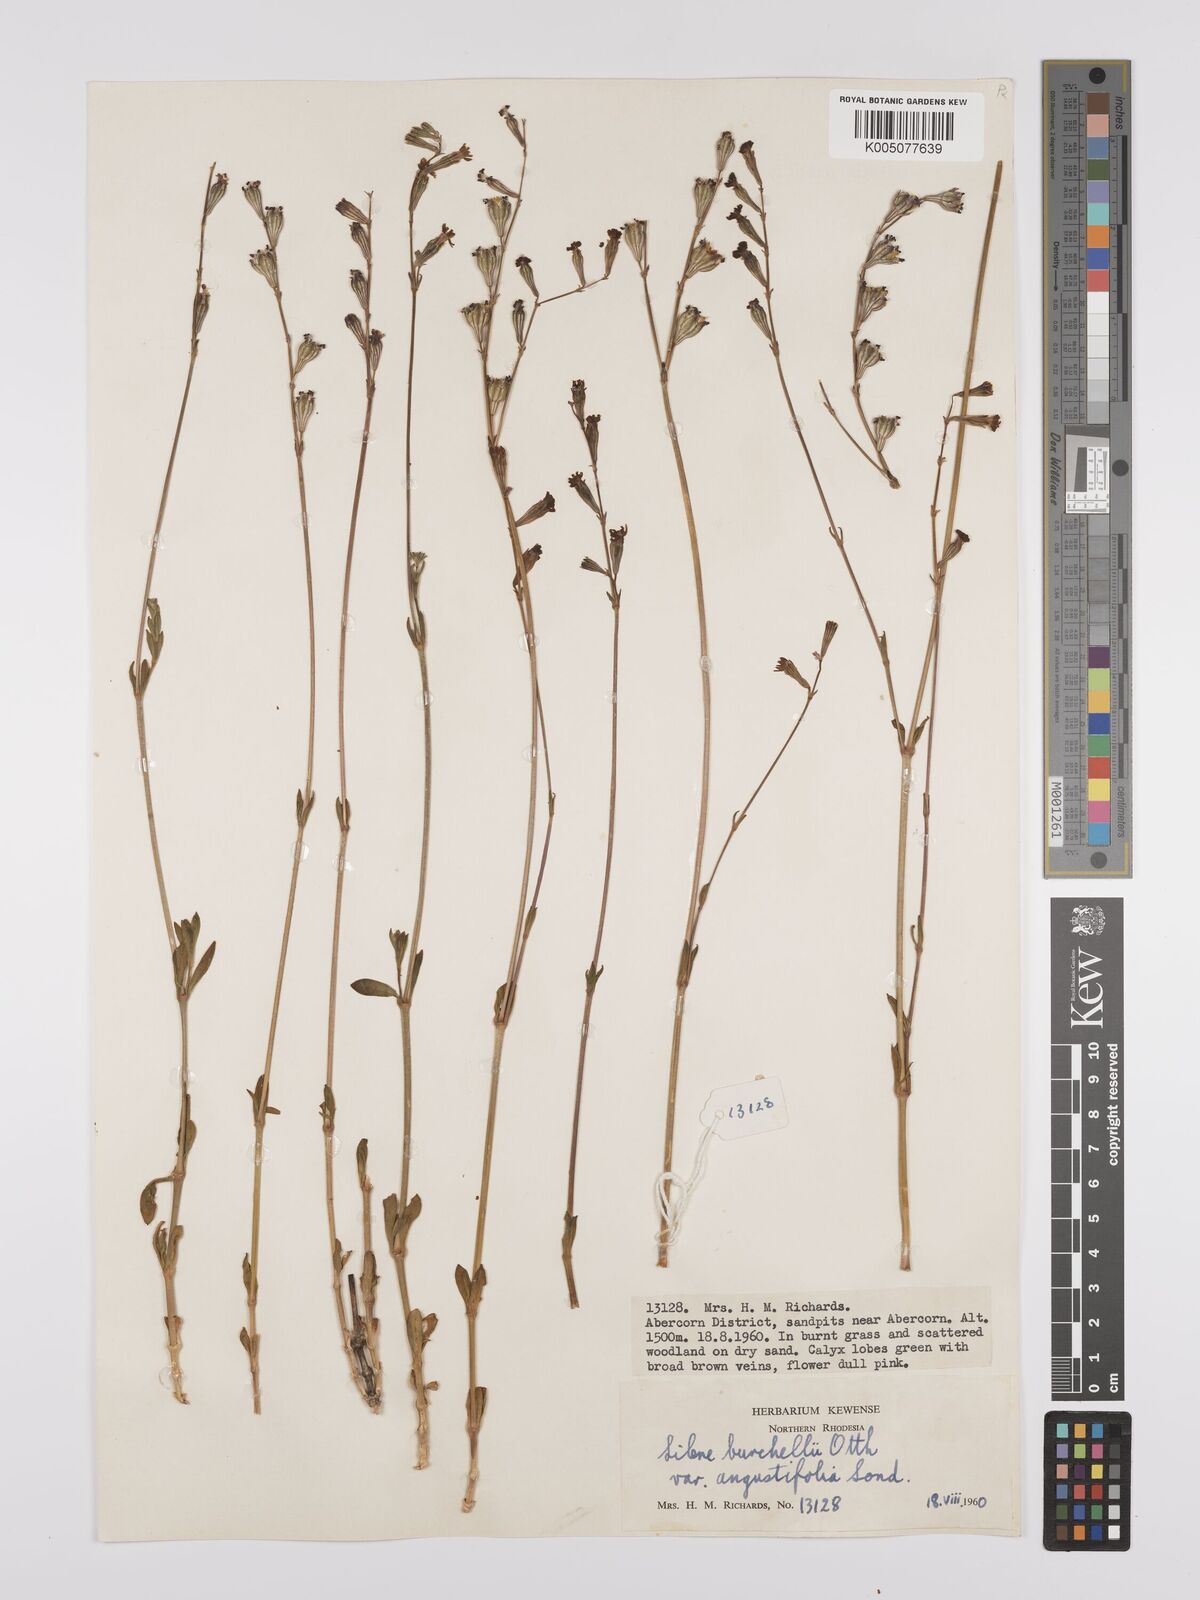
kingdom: Plantae
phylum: Tracheophyta
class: Magnoliopsida
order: Caryophyllales
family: Caryophyllaceae
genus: Silene
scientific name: Silene burchellii
